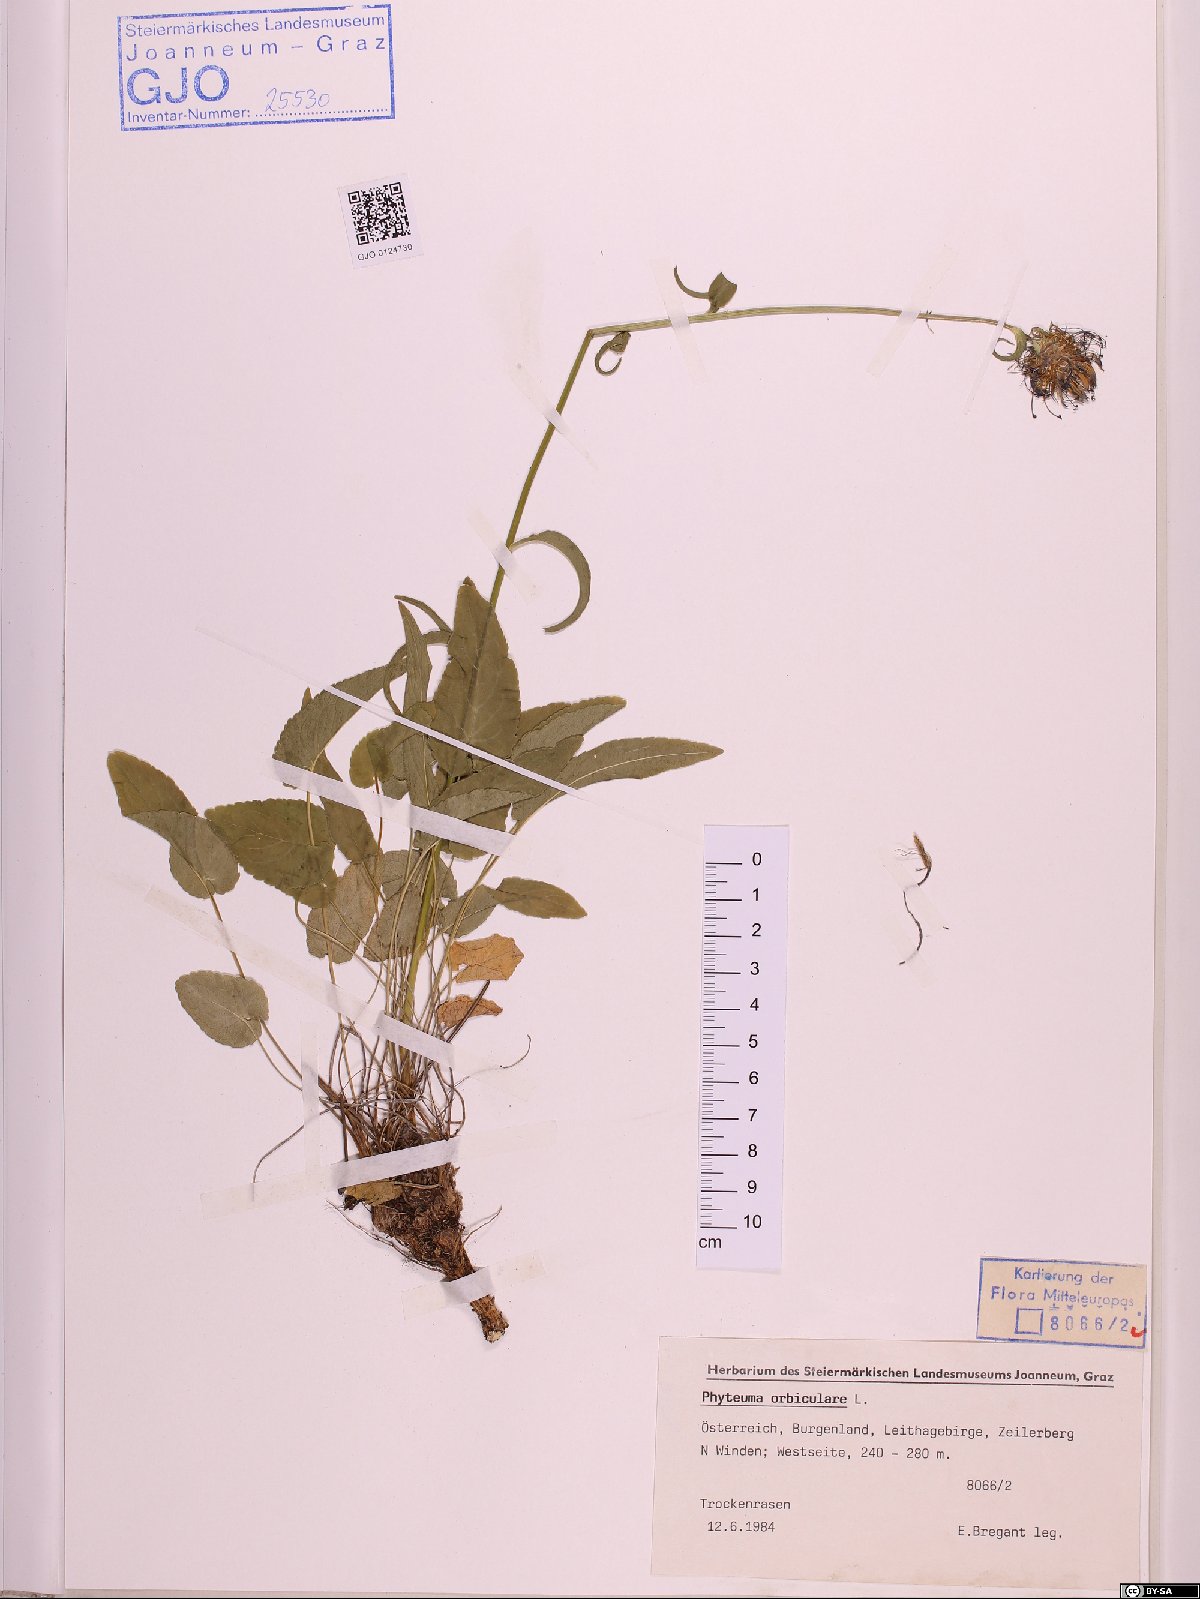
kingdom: Plantae
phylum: Tracheophyta
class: Magnoliopsida
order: Asterales
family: Campanulaceae
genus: Phyteuma
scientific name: Phyteuma orbiculare
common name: Round-headed rampion
